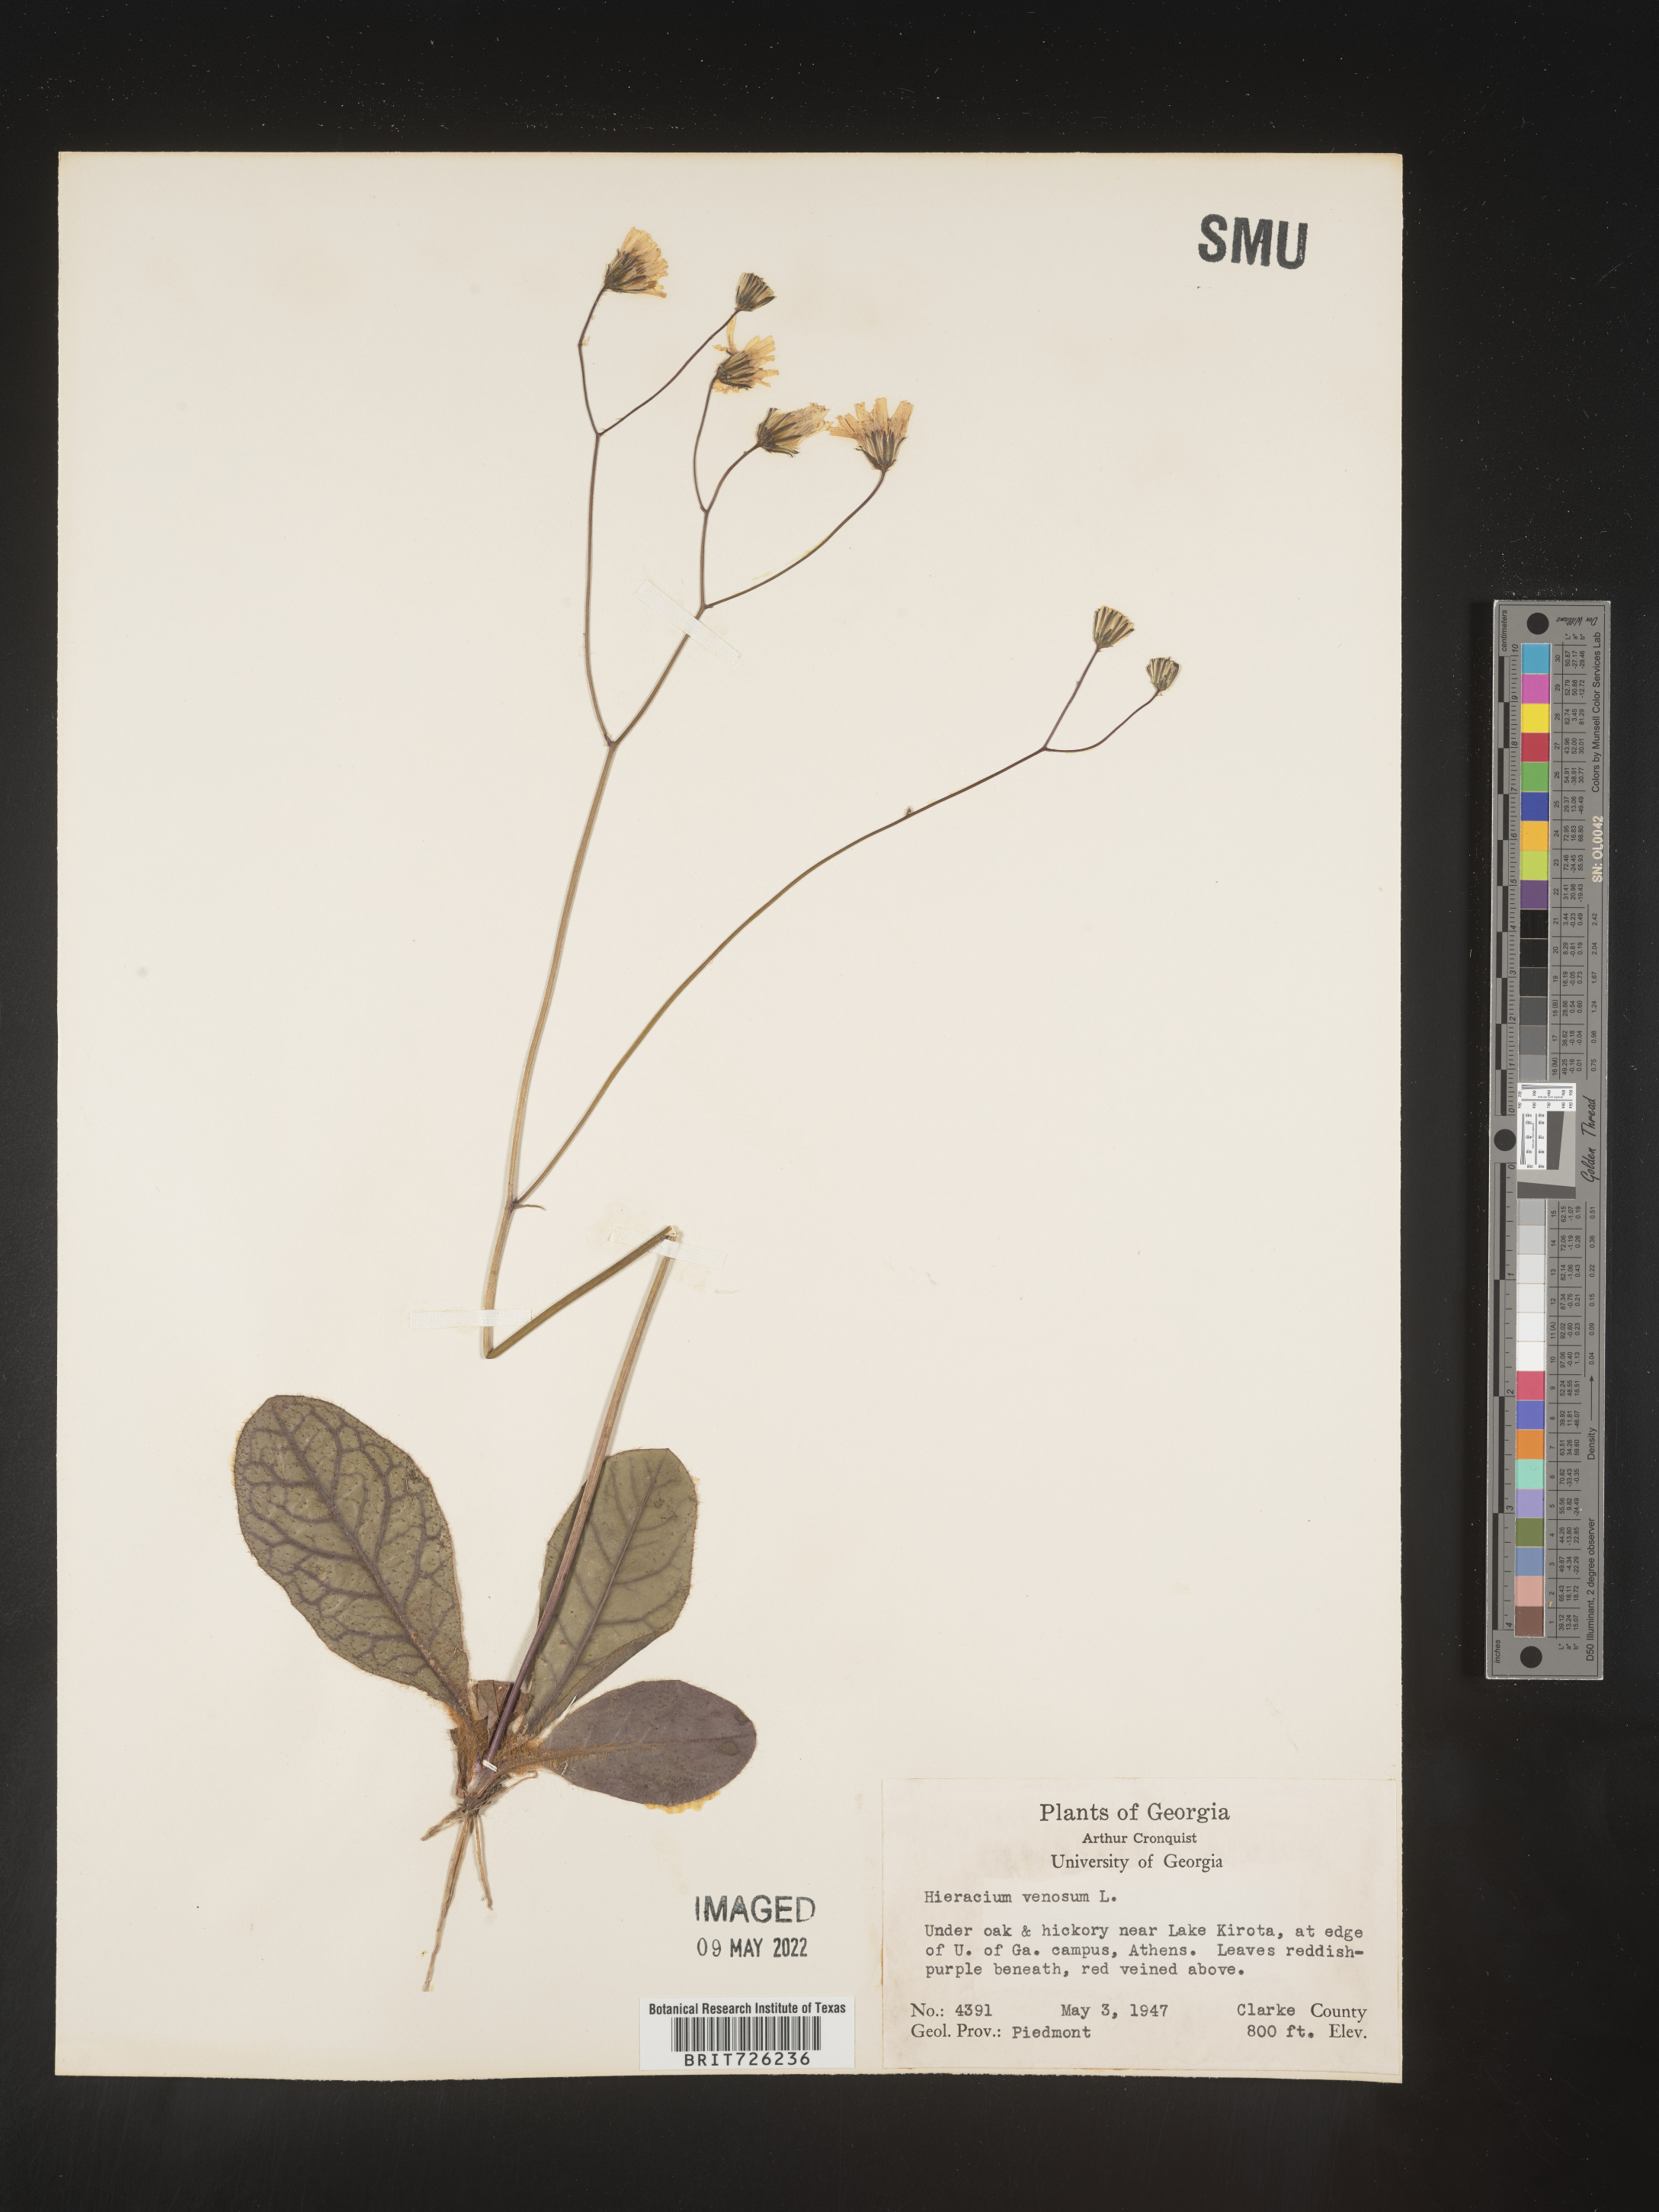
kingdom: Plantae
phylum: Tracheophyta
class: Magnoliopsida
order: Asterales
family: Asteraceae
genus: Hieracium
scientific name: Hieracium
